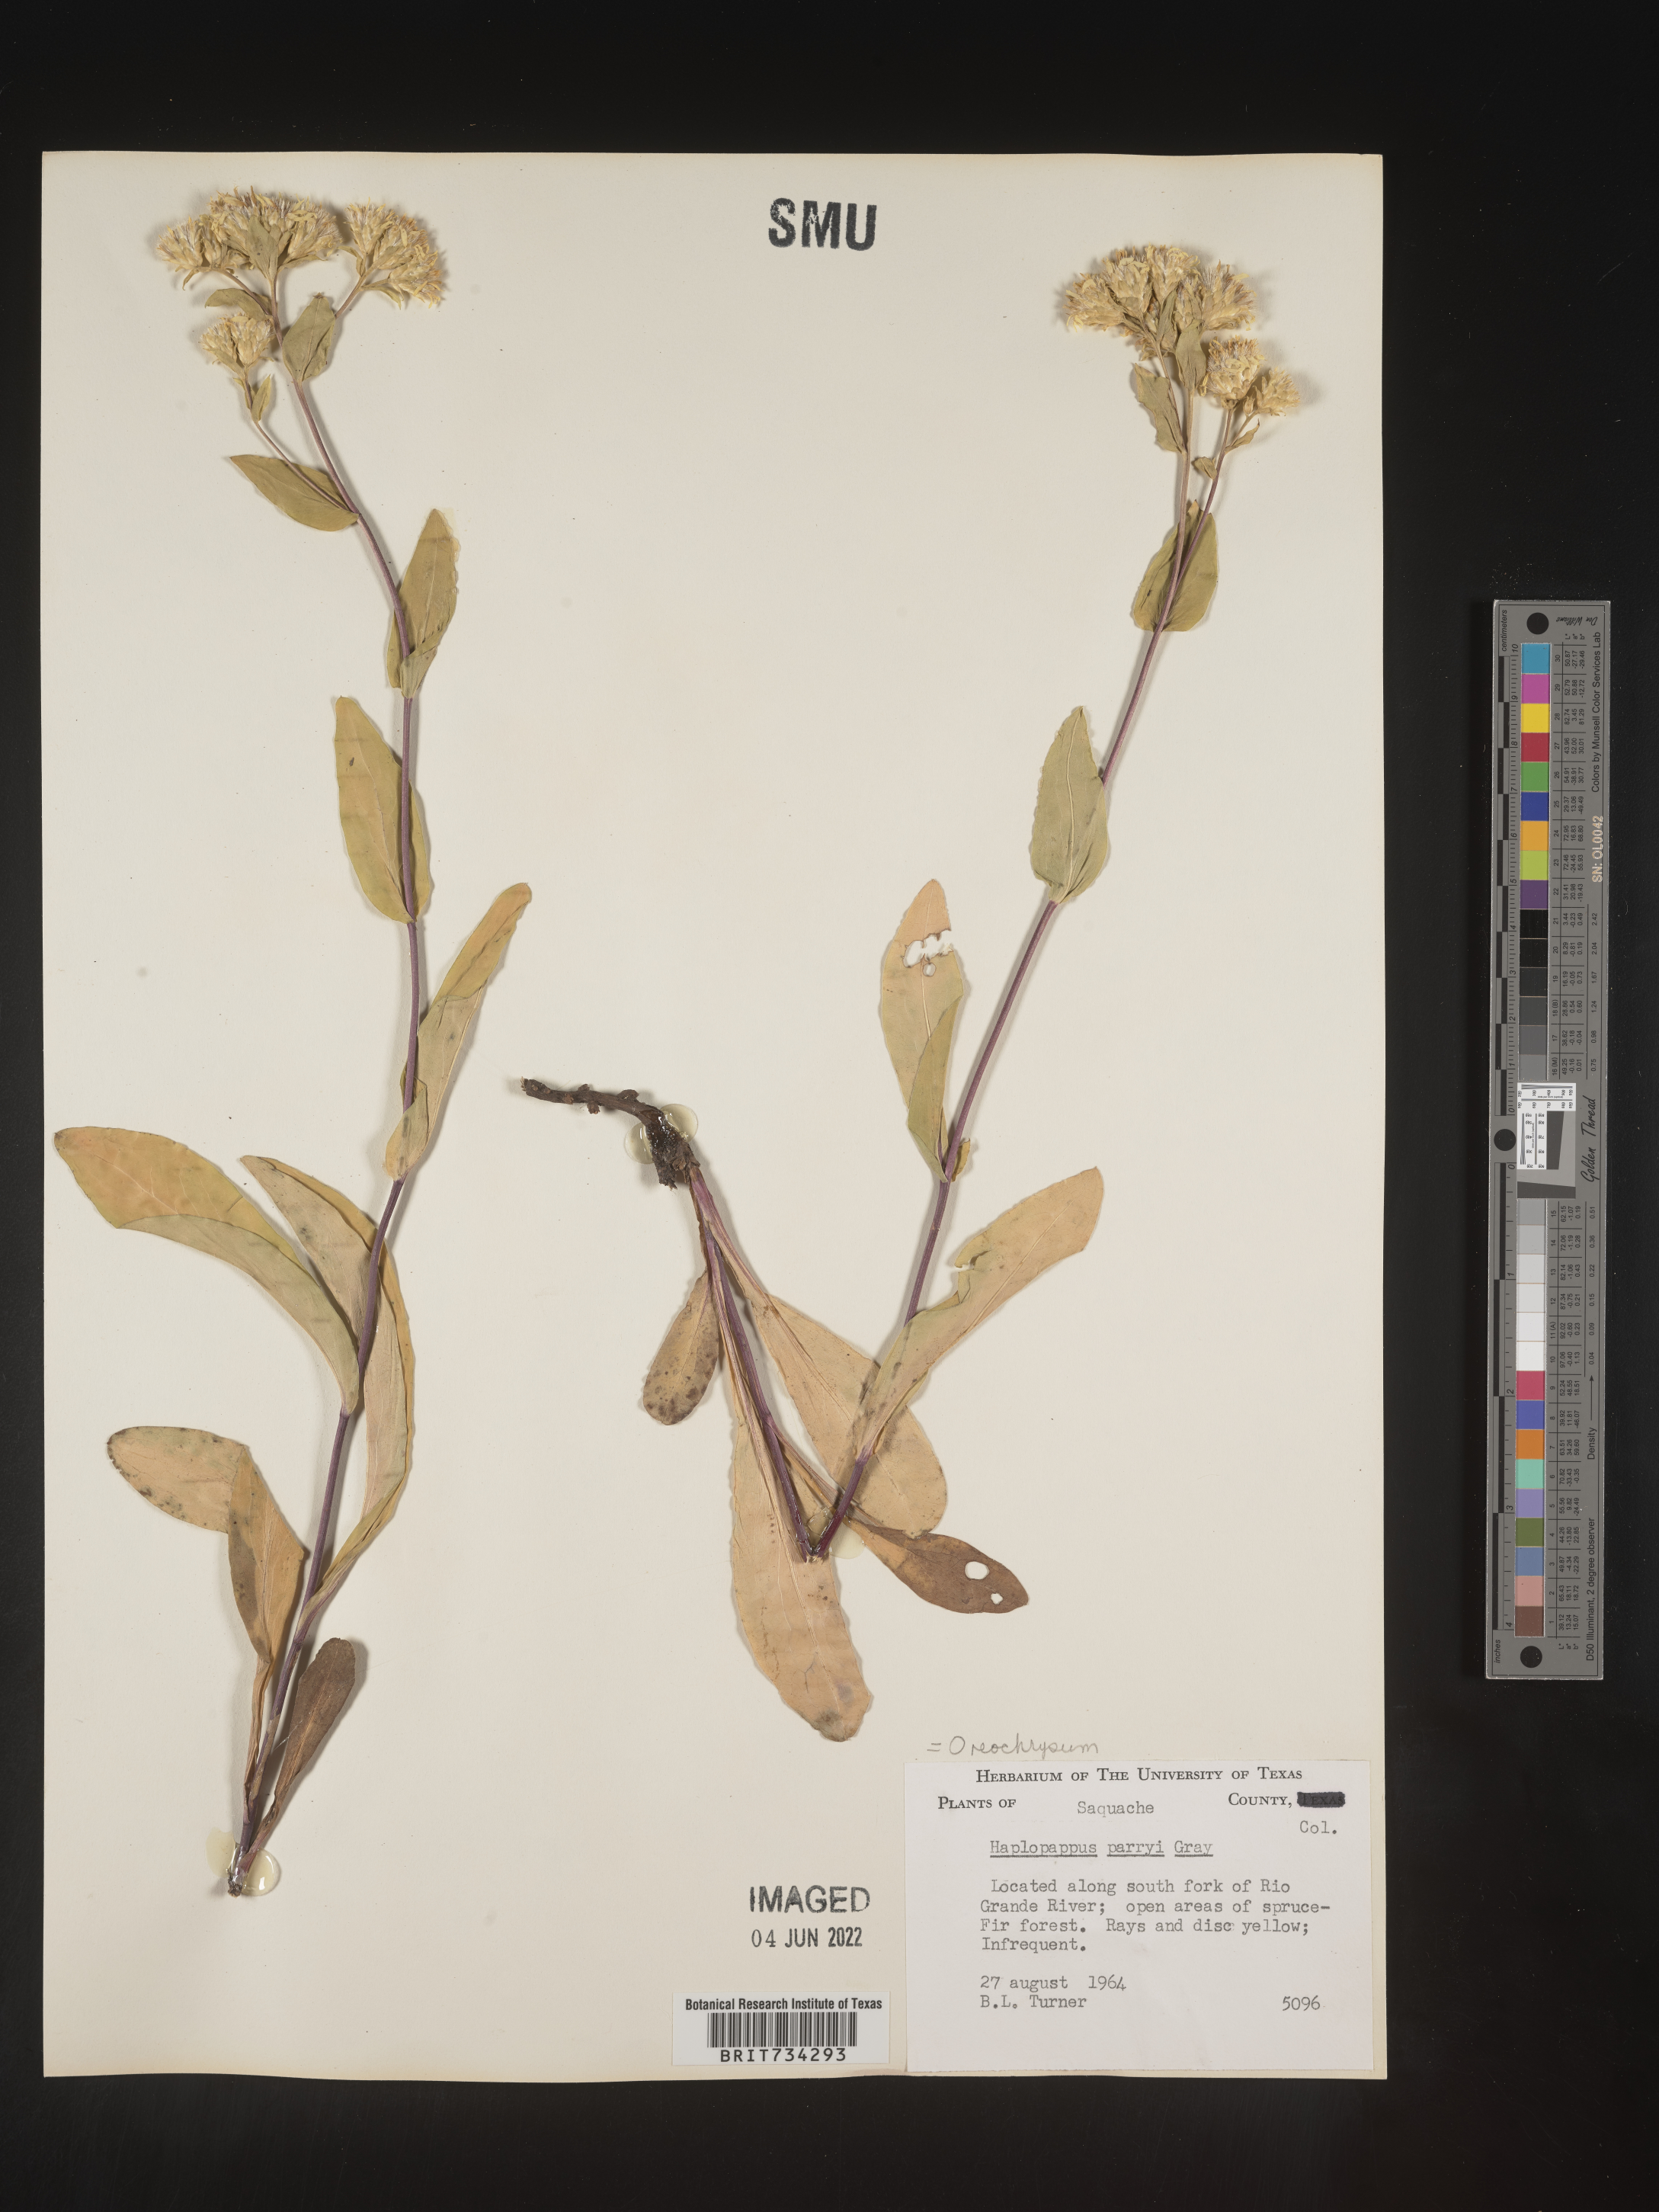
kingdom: Plantae
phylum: Tracheophyta
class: Magnoliopsida
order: Asterales
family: Asteraceae
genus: Oreochrysum
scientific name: Oreochrysum parryi
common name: Parry's goldenweed
